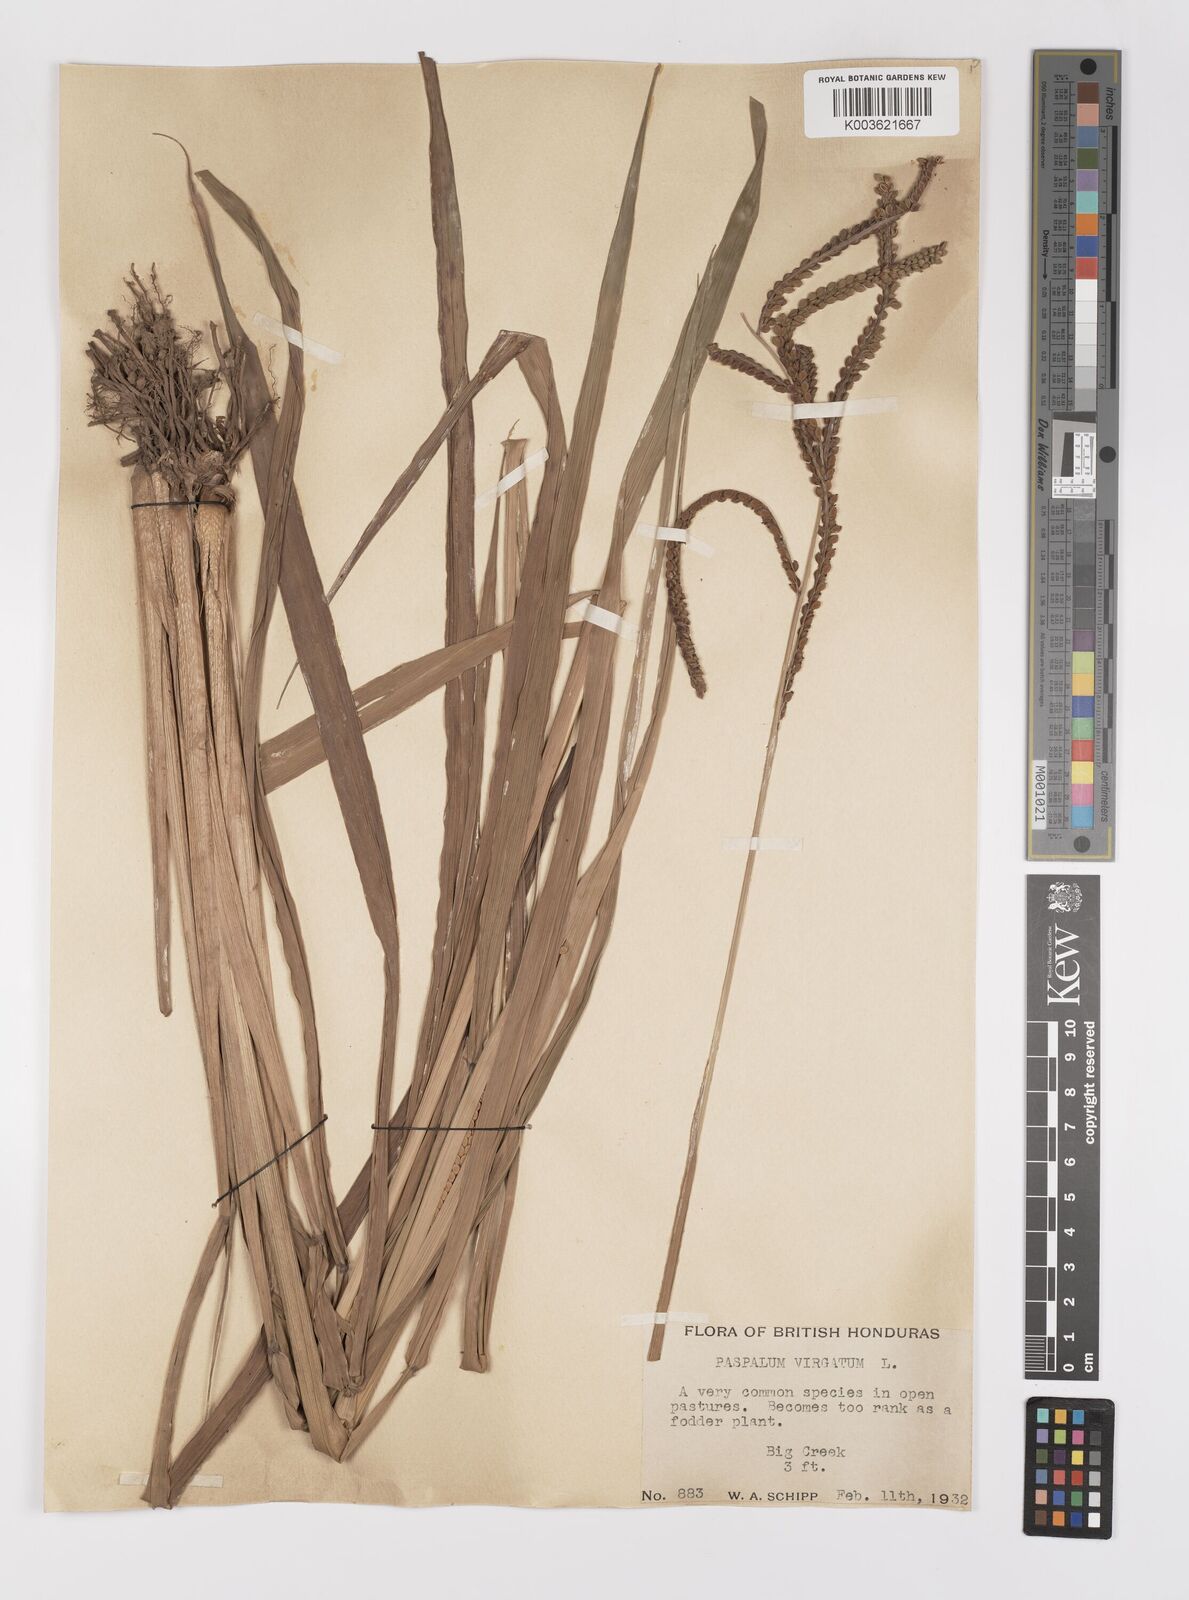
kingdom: Plantae
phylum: Tracheophyta
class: Liliopsida
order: Poales
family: Poaceae
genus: Paspalum
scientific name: Paspalum virgatum
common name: Talquezal
